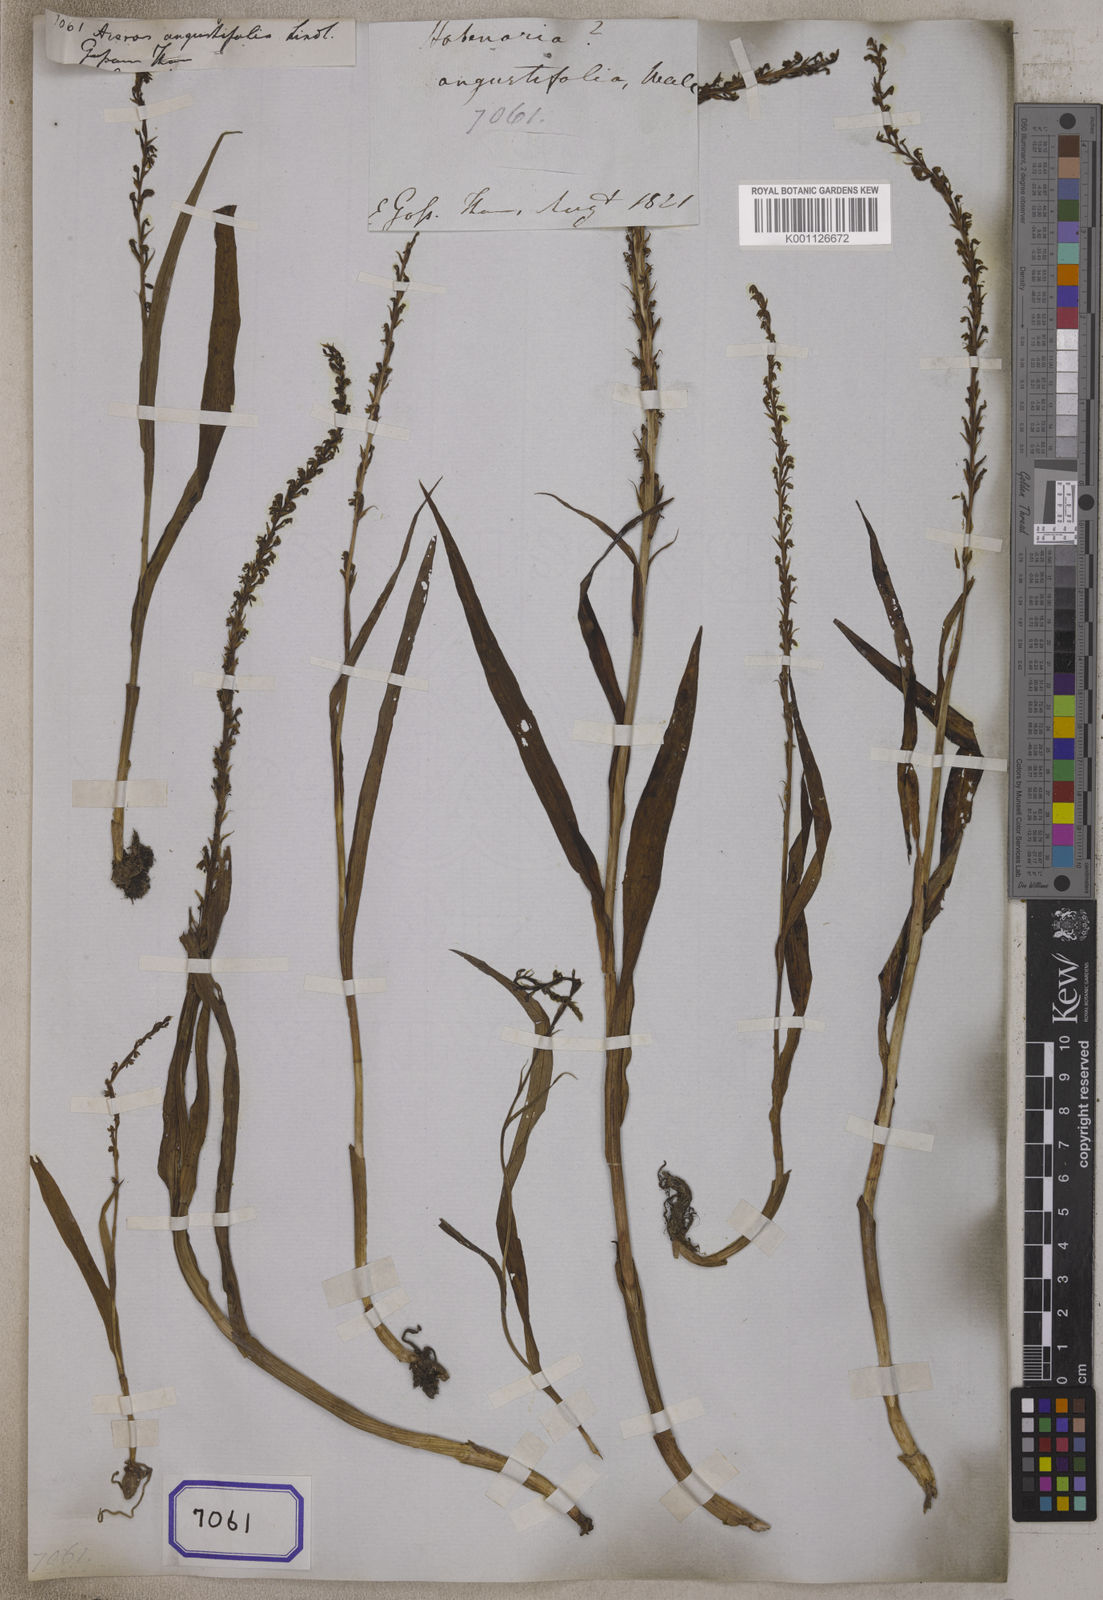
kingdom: Plantae
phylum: Tracheophyta
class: Liliopsida
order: Asparagales
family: Orchidaceae
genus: Herminium
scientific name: Herminium lanceum
